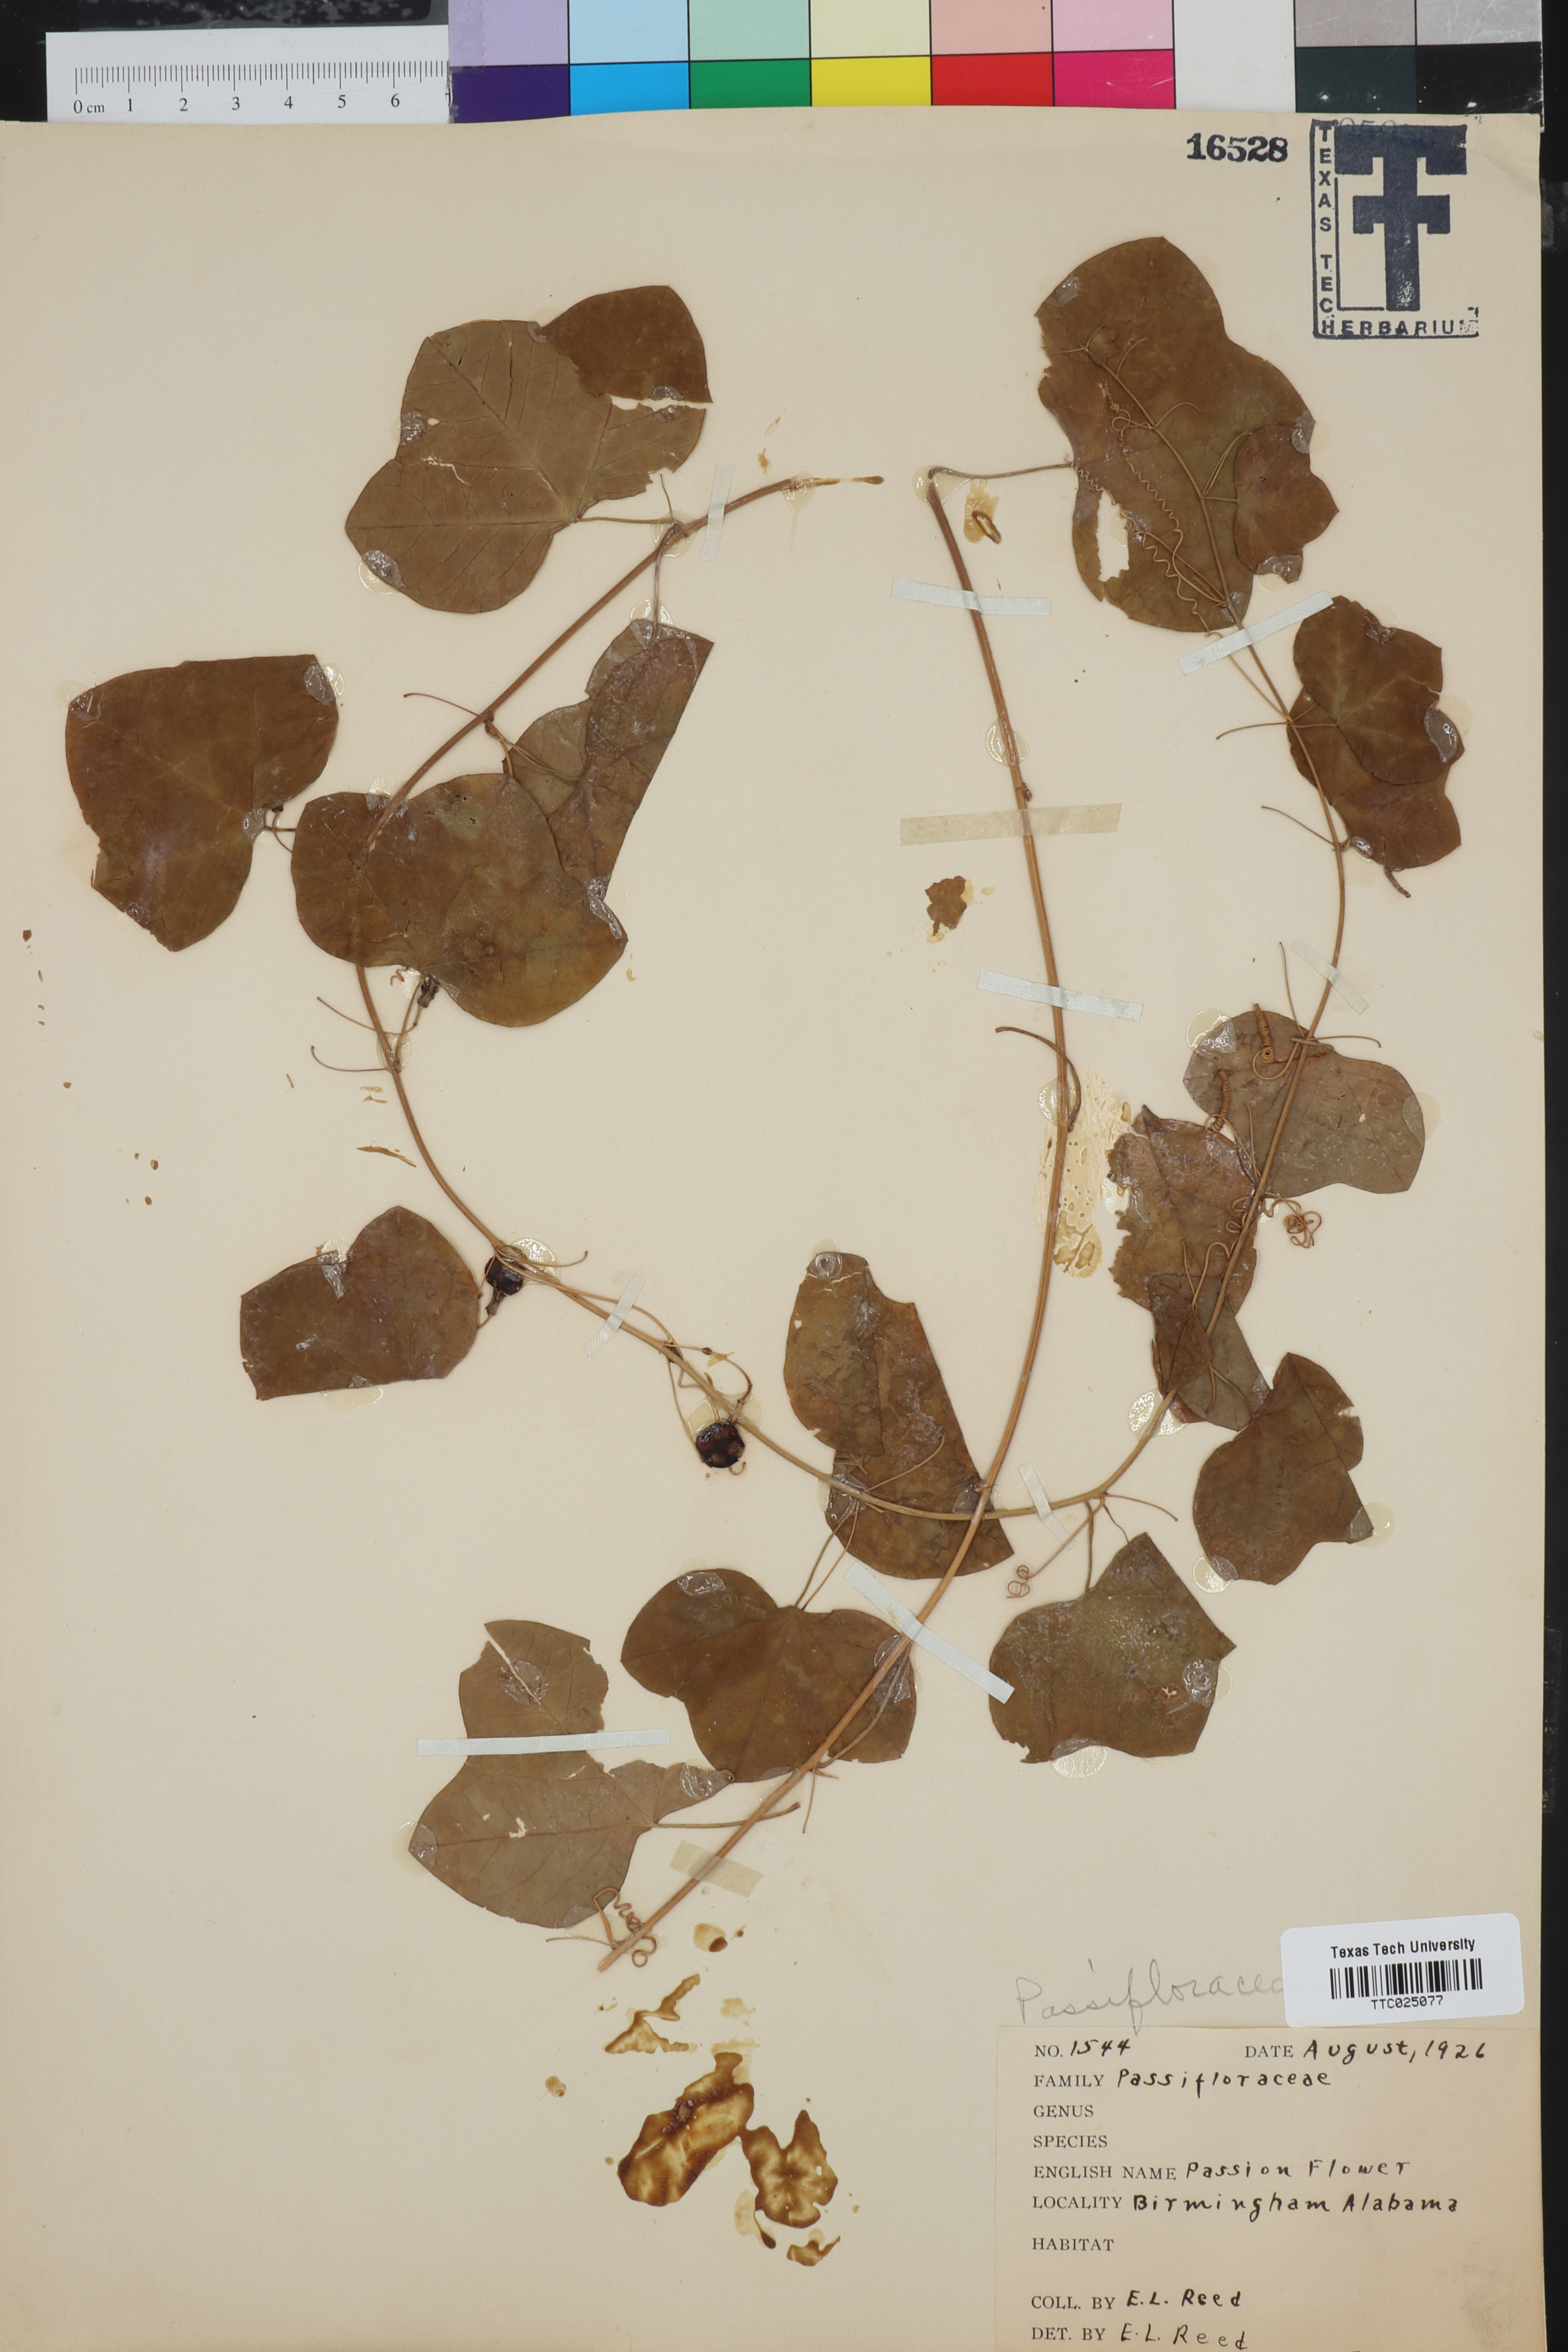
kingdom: Plantae
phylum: Tracheophyta
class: Magnoliopsida
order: Malpighiales
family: Passifloraceae
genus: Passiflora
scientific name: Passiflora incarnata
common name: Apricot-vine
